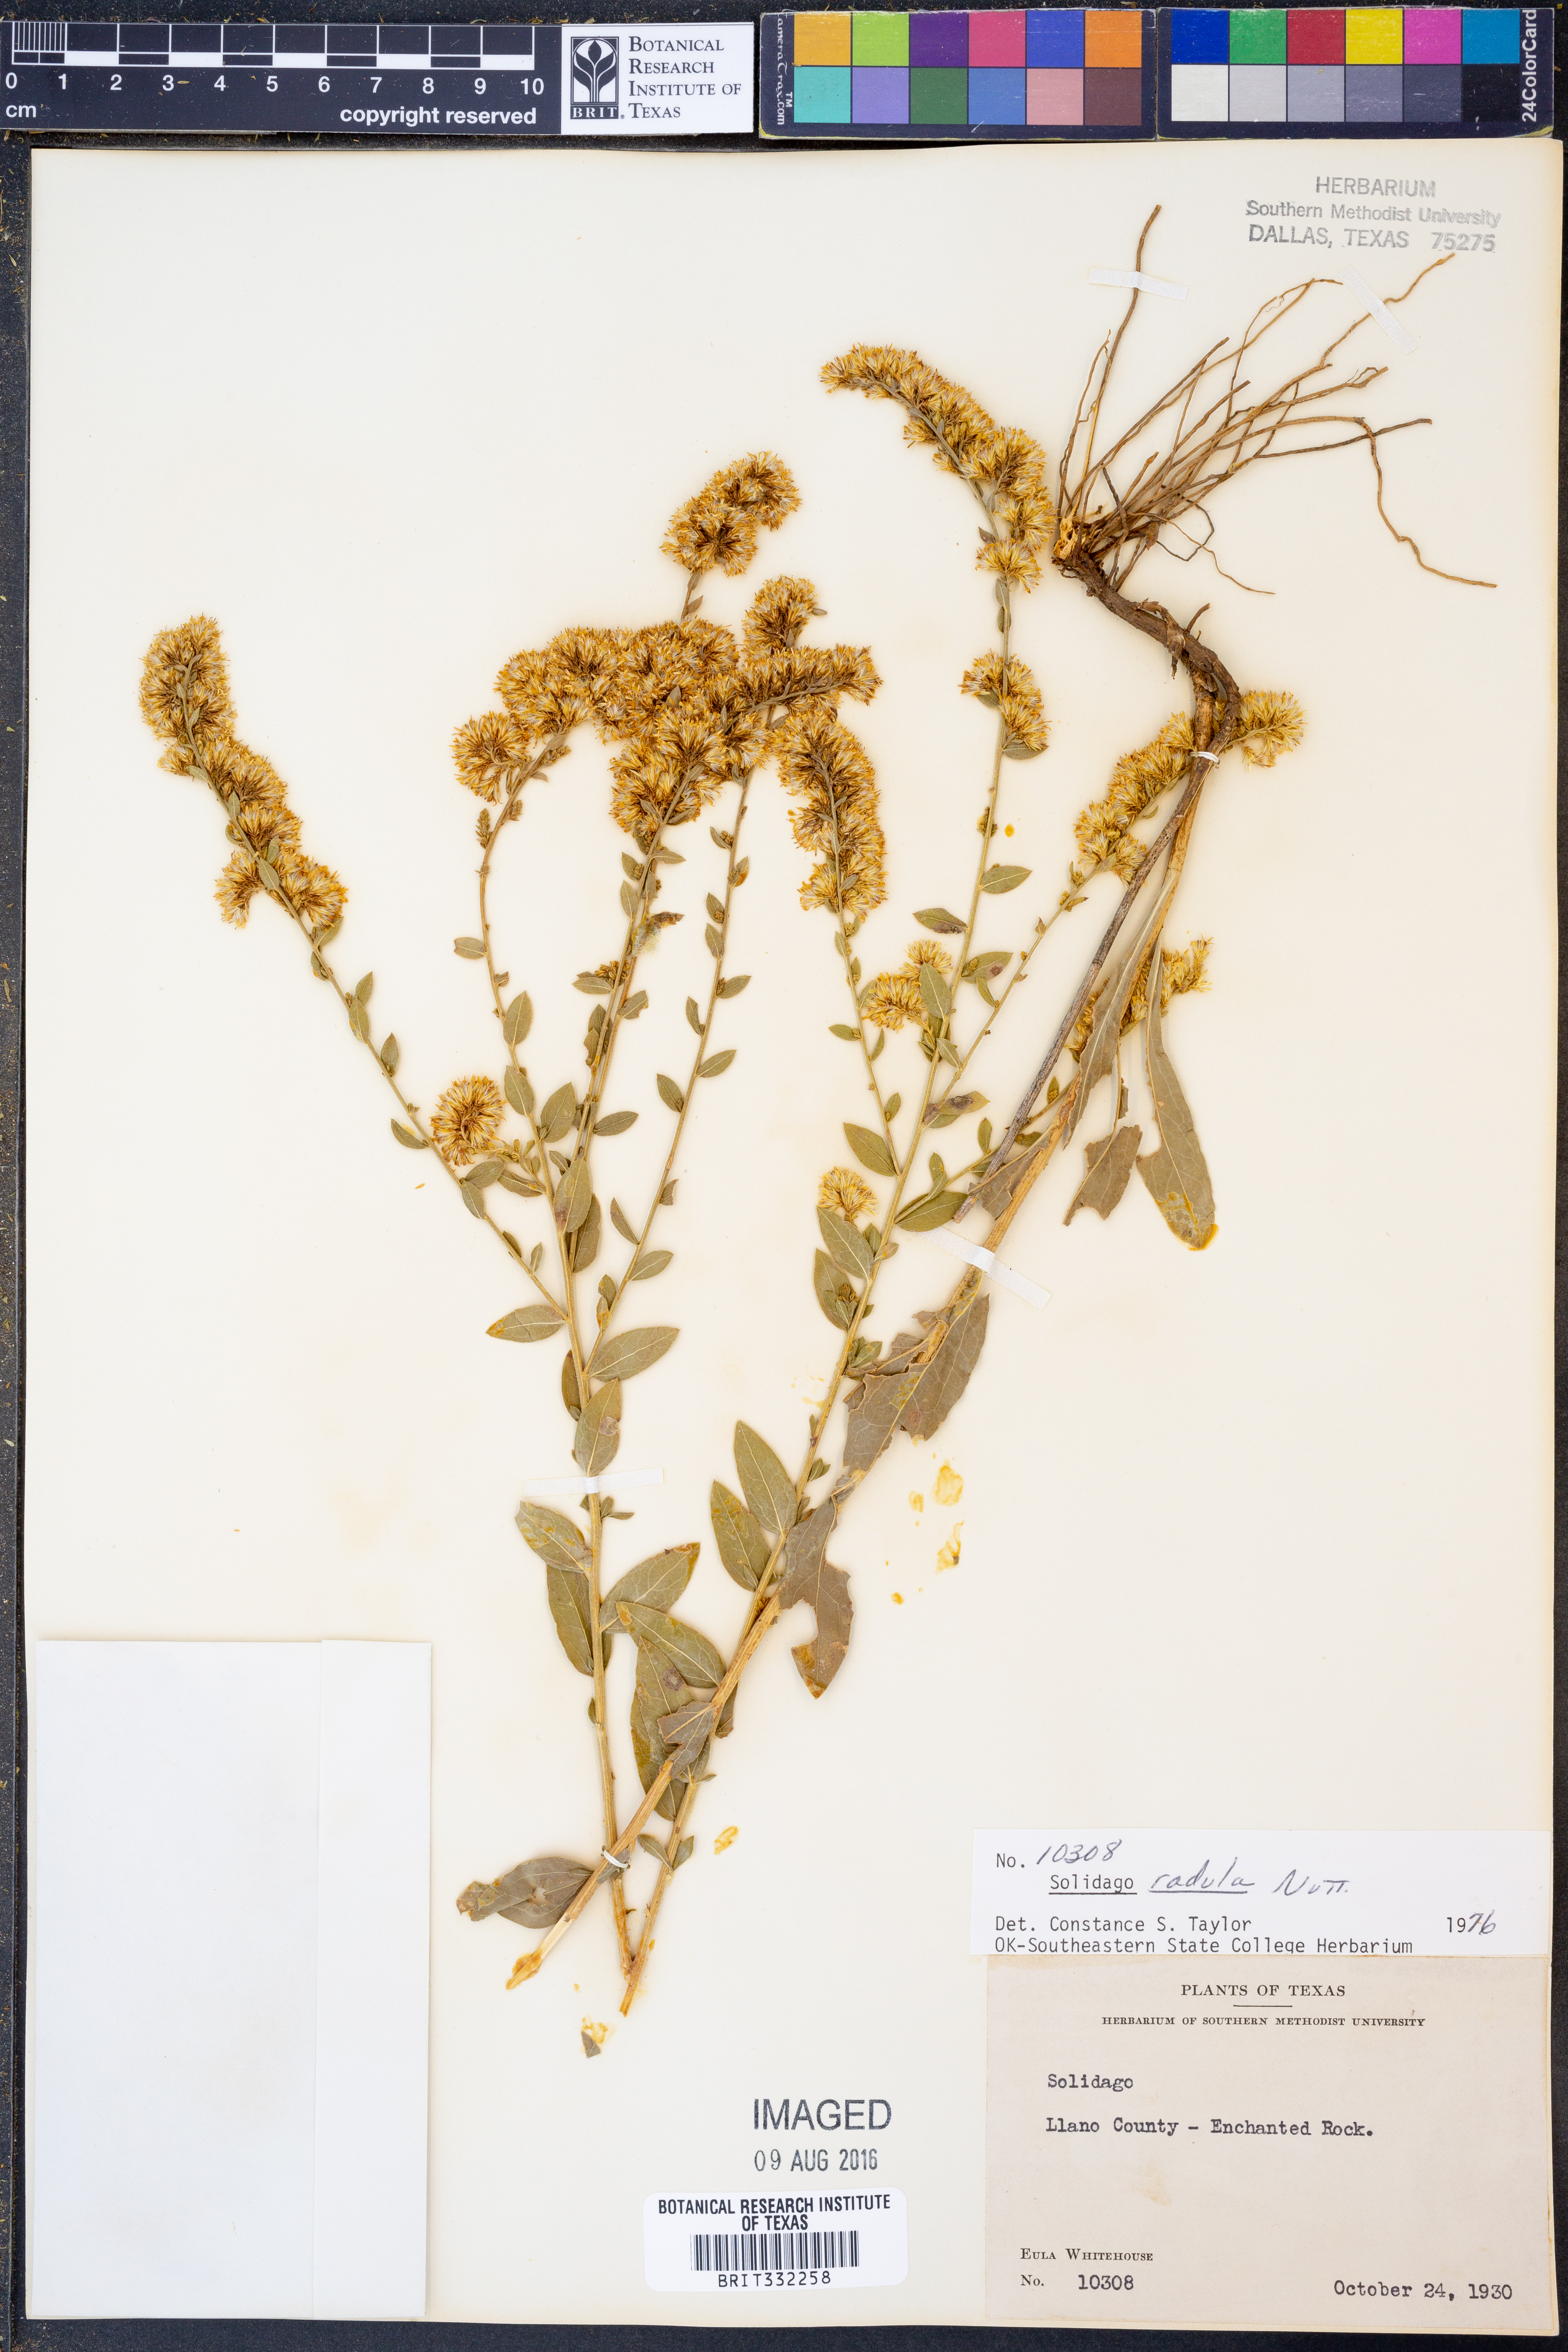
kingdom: Plantae
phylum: Tracheophyta
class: Magnoliopsida
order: Asterales
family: Asteraceae
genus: Solidago
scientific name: Solidago radula
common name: Western rough goldenrod
